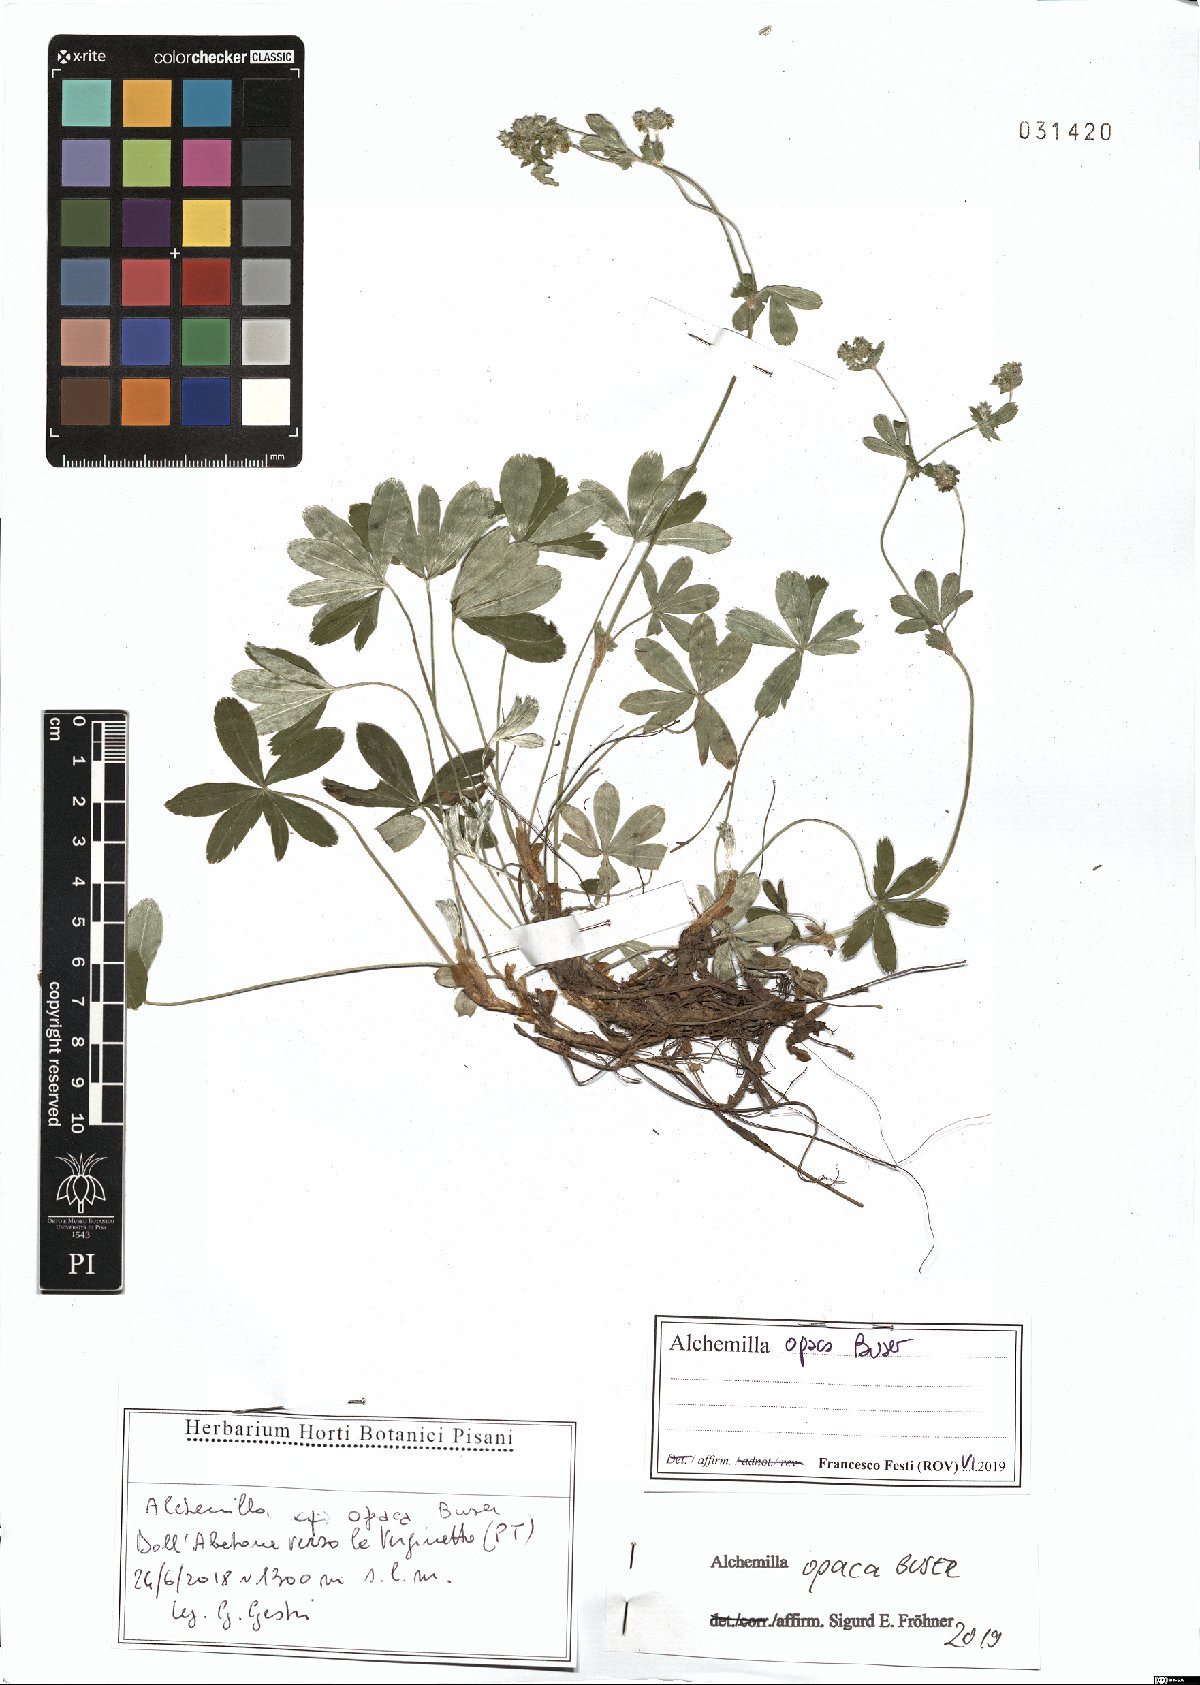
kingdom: Plantae
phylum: Tracheophyta
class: Magnoliopsida
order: Rosales
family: Rosaceae
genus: Alchemilla
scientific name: Alchemilla opaca
